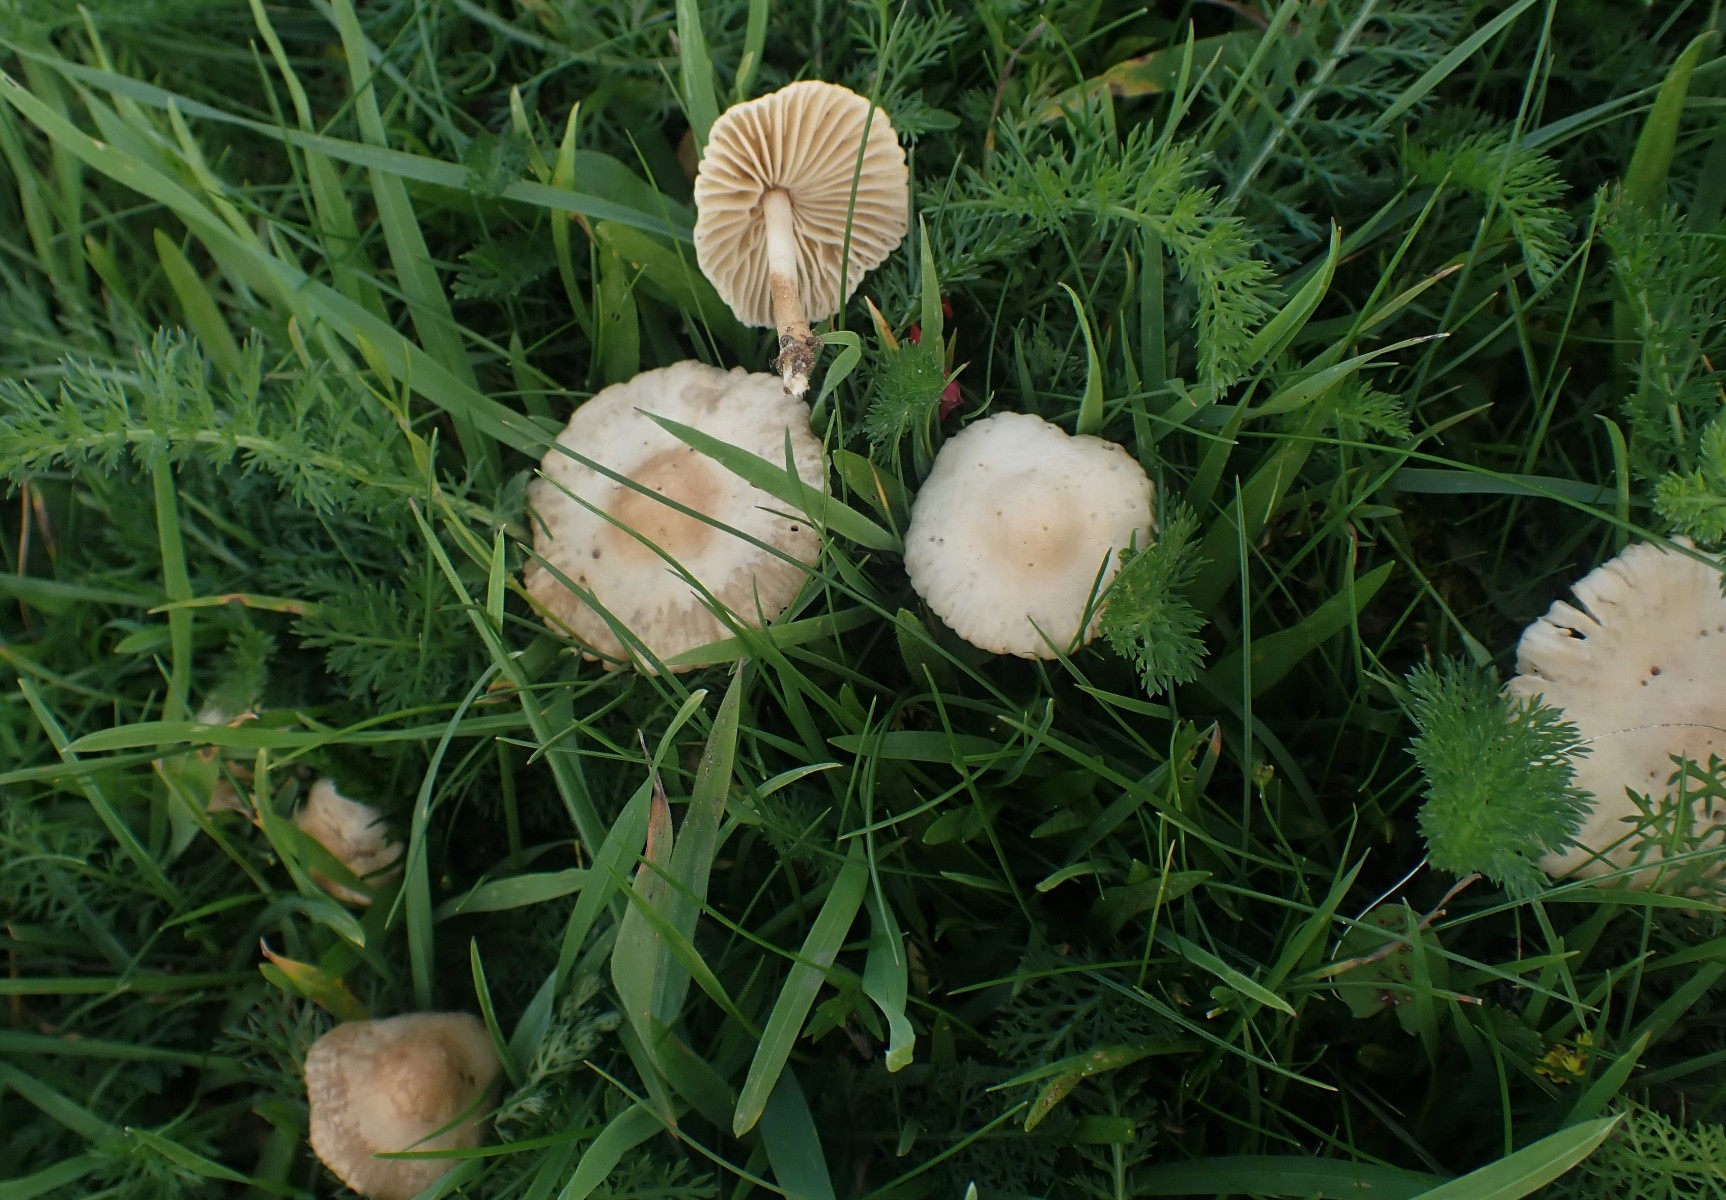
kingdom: Fungi
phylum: Basidiomycota
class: Agaricomycetes
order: Agaricales
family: Marasmiaceae
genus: Marasmius
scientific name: Marasmius oreades
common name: elledans-bruskhat
